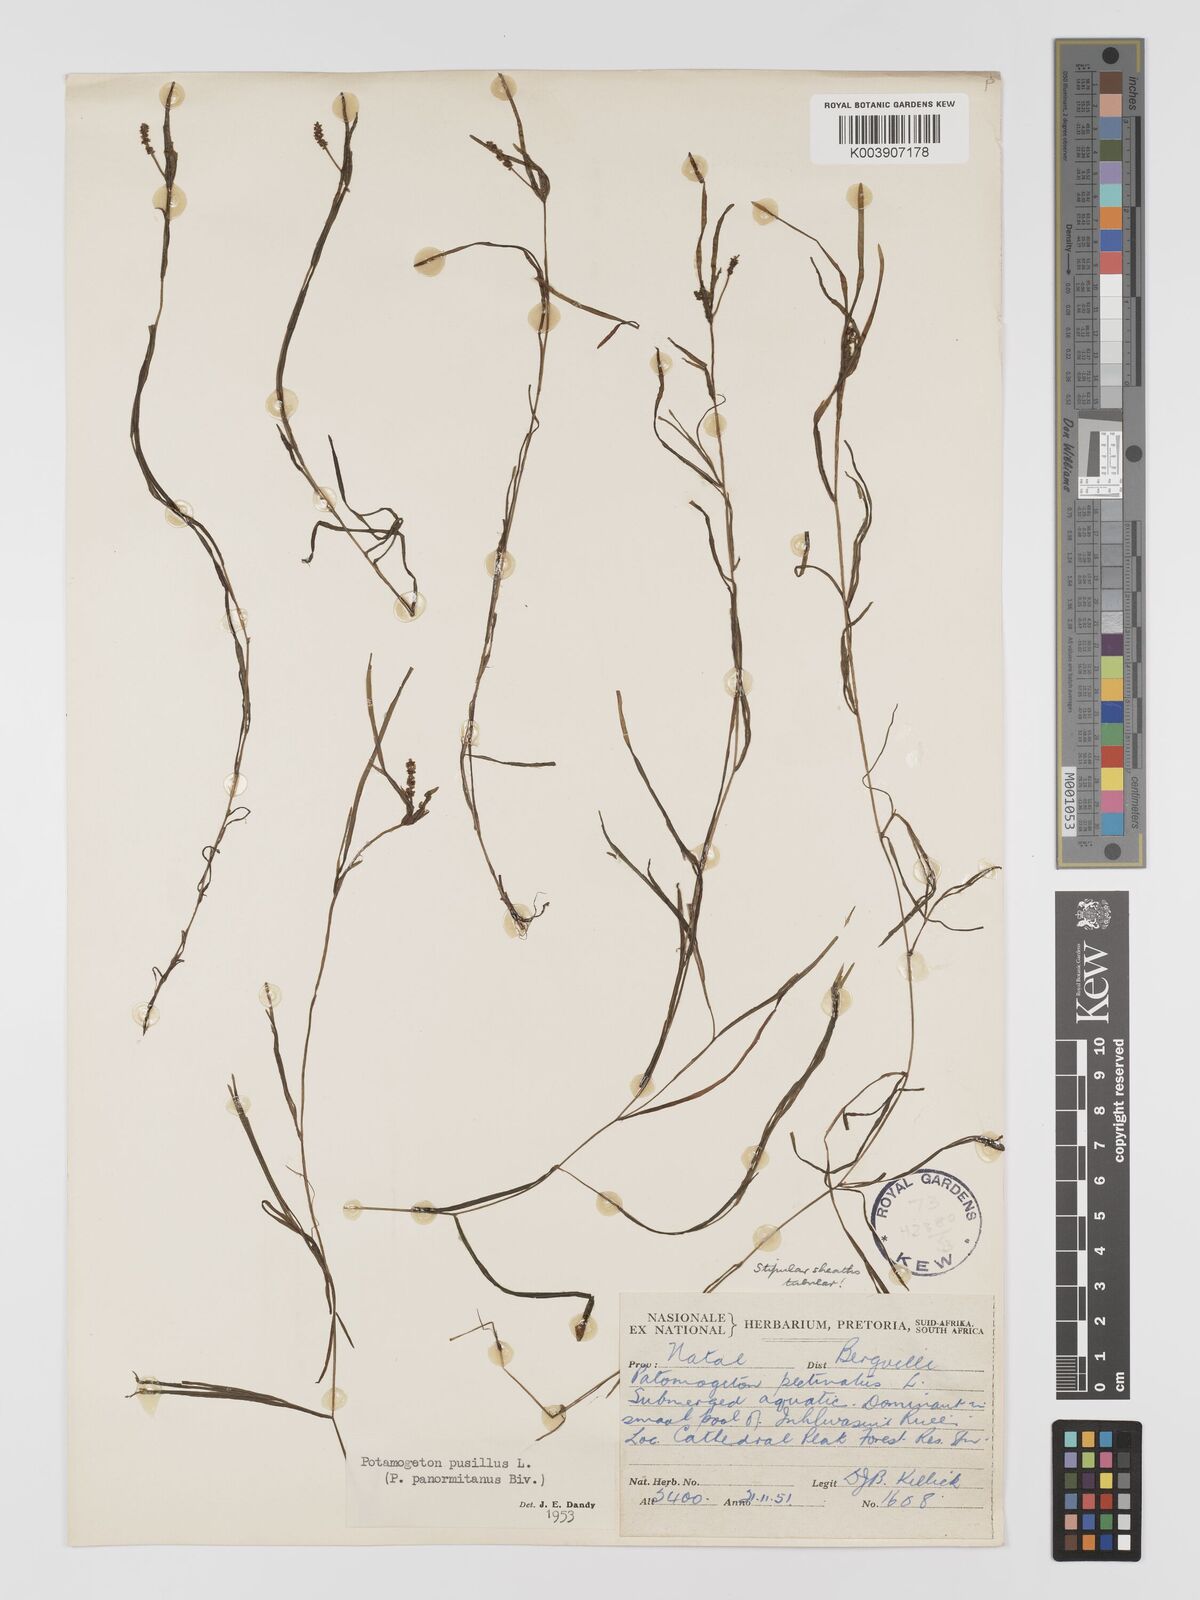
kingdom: Plantae
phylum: Tracheophyta
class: Liliopsida
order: Alismatales
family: Potamogetonaceae
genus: Potamogeton
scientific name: Potamogeton pusillus
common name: Lesser pondweed
